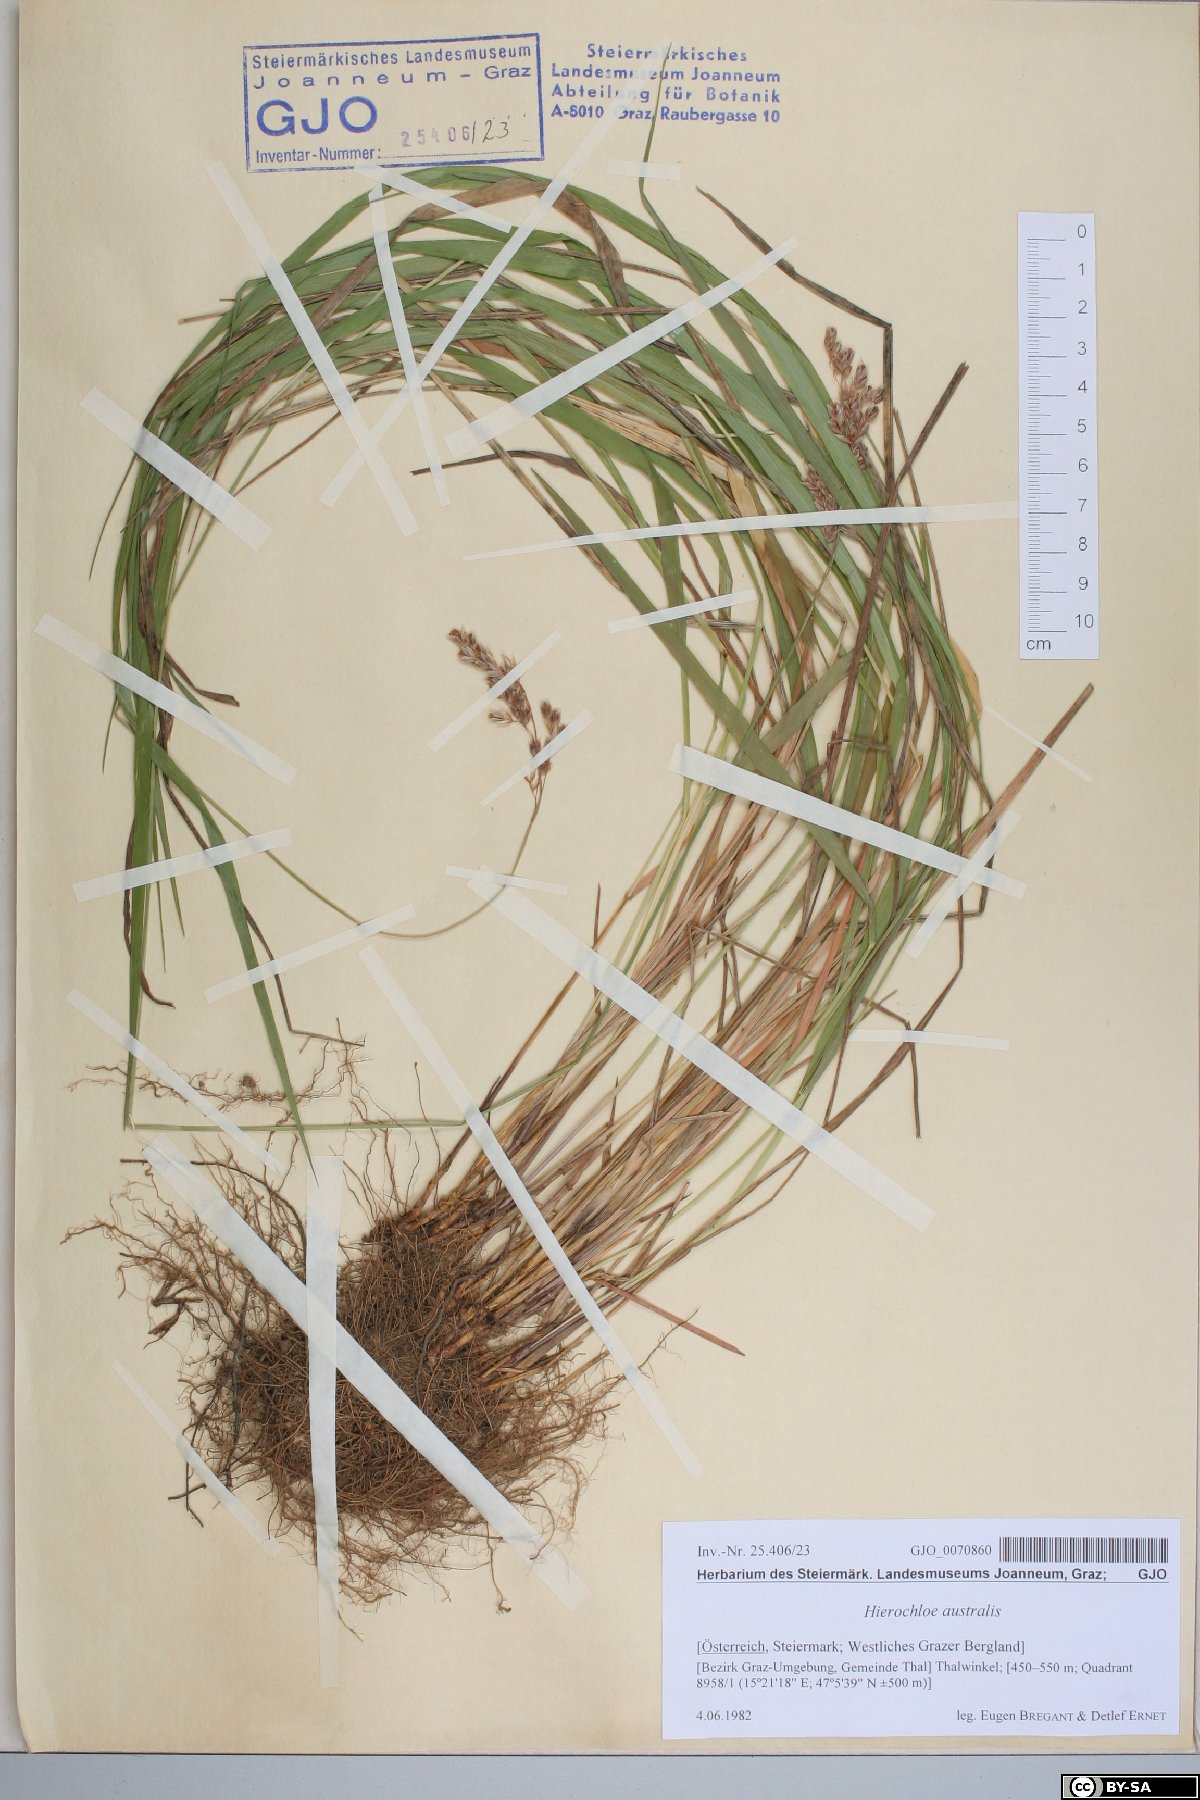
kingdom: Plantae
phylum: Tracheophyta
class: Liliopsida
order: Poales
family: Poaceae
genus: Anthoxanthum
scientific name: Anthoxanthum australe
